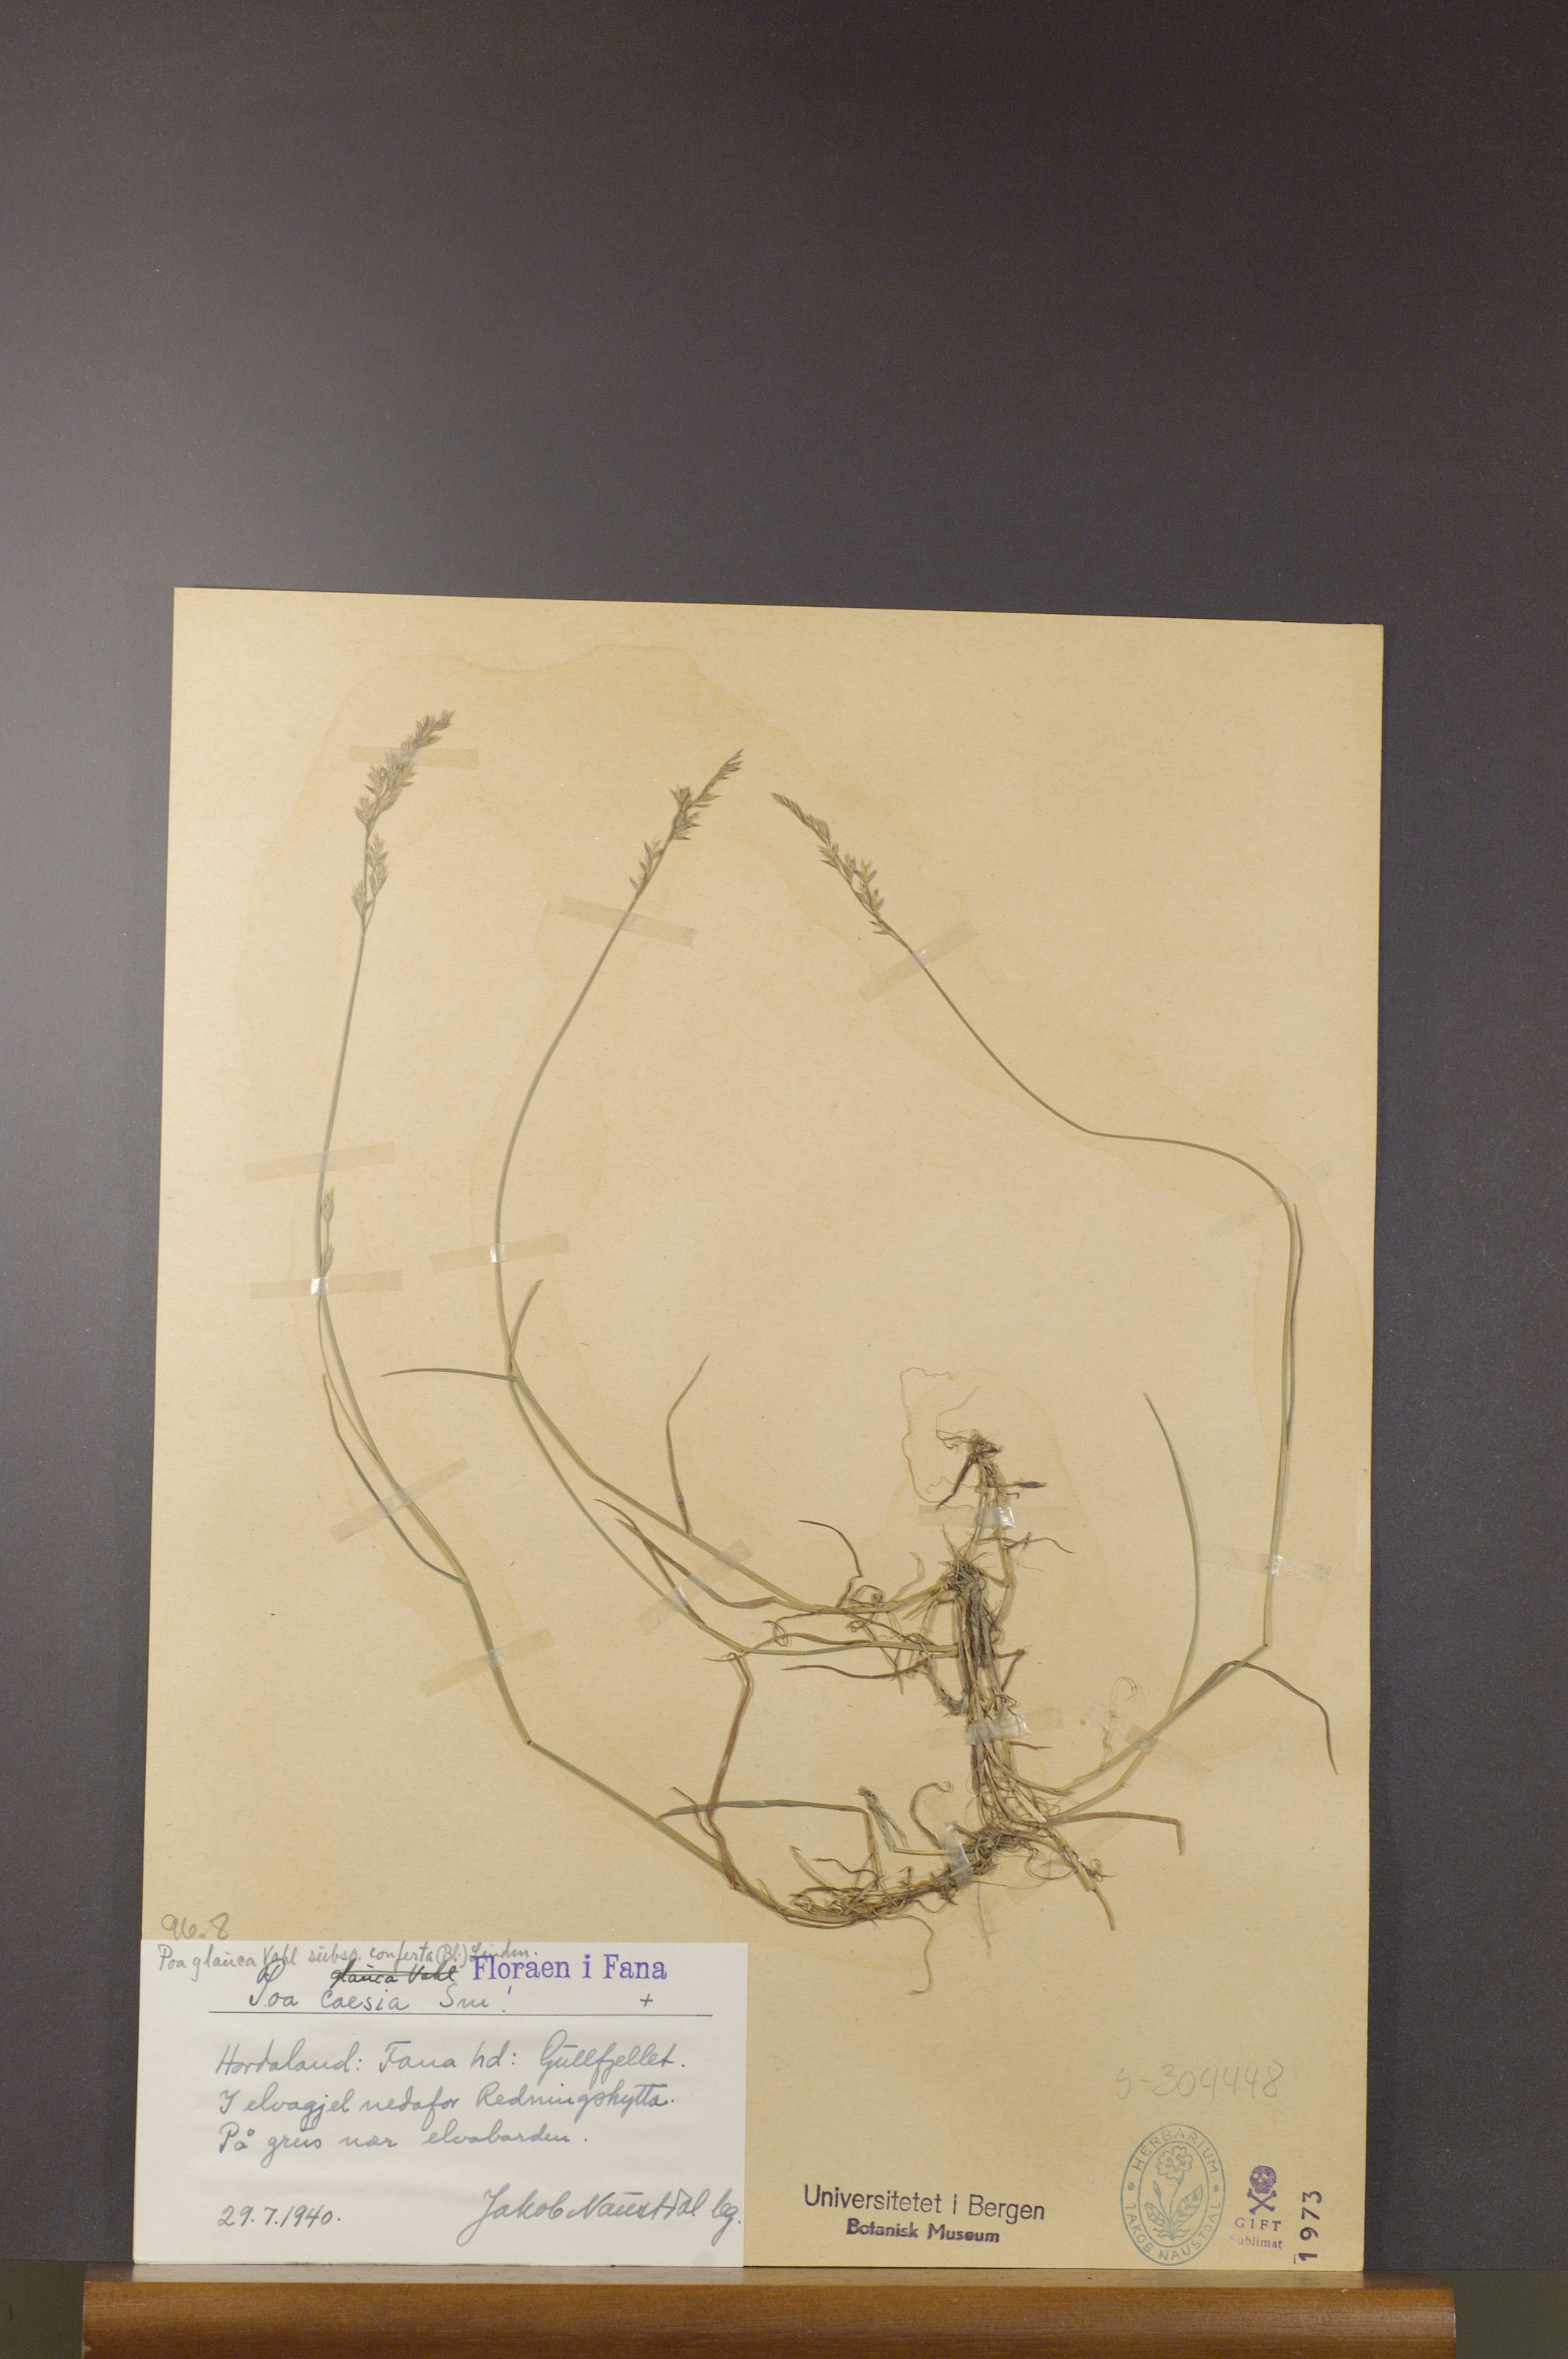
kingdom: Plantae
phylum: Tracheophyta
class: Liliopsida
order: Poales
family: Poaceae
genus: Poa
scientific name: Poa glauca
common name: Glaucous bluegrass
